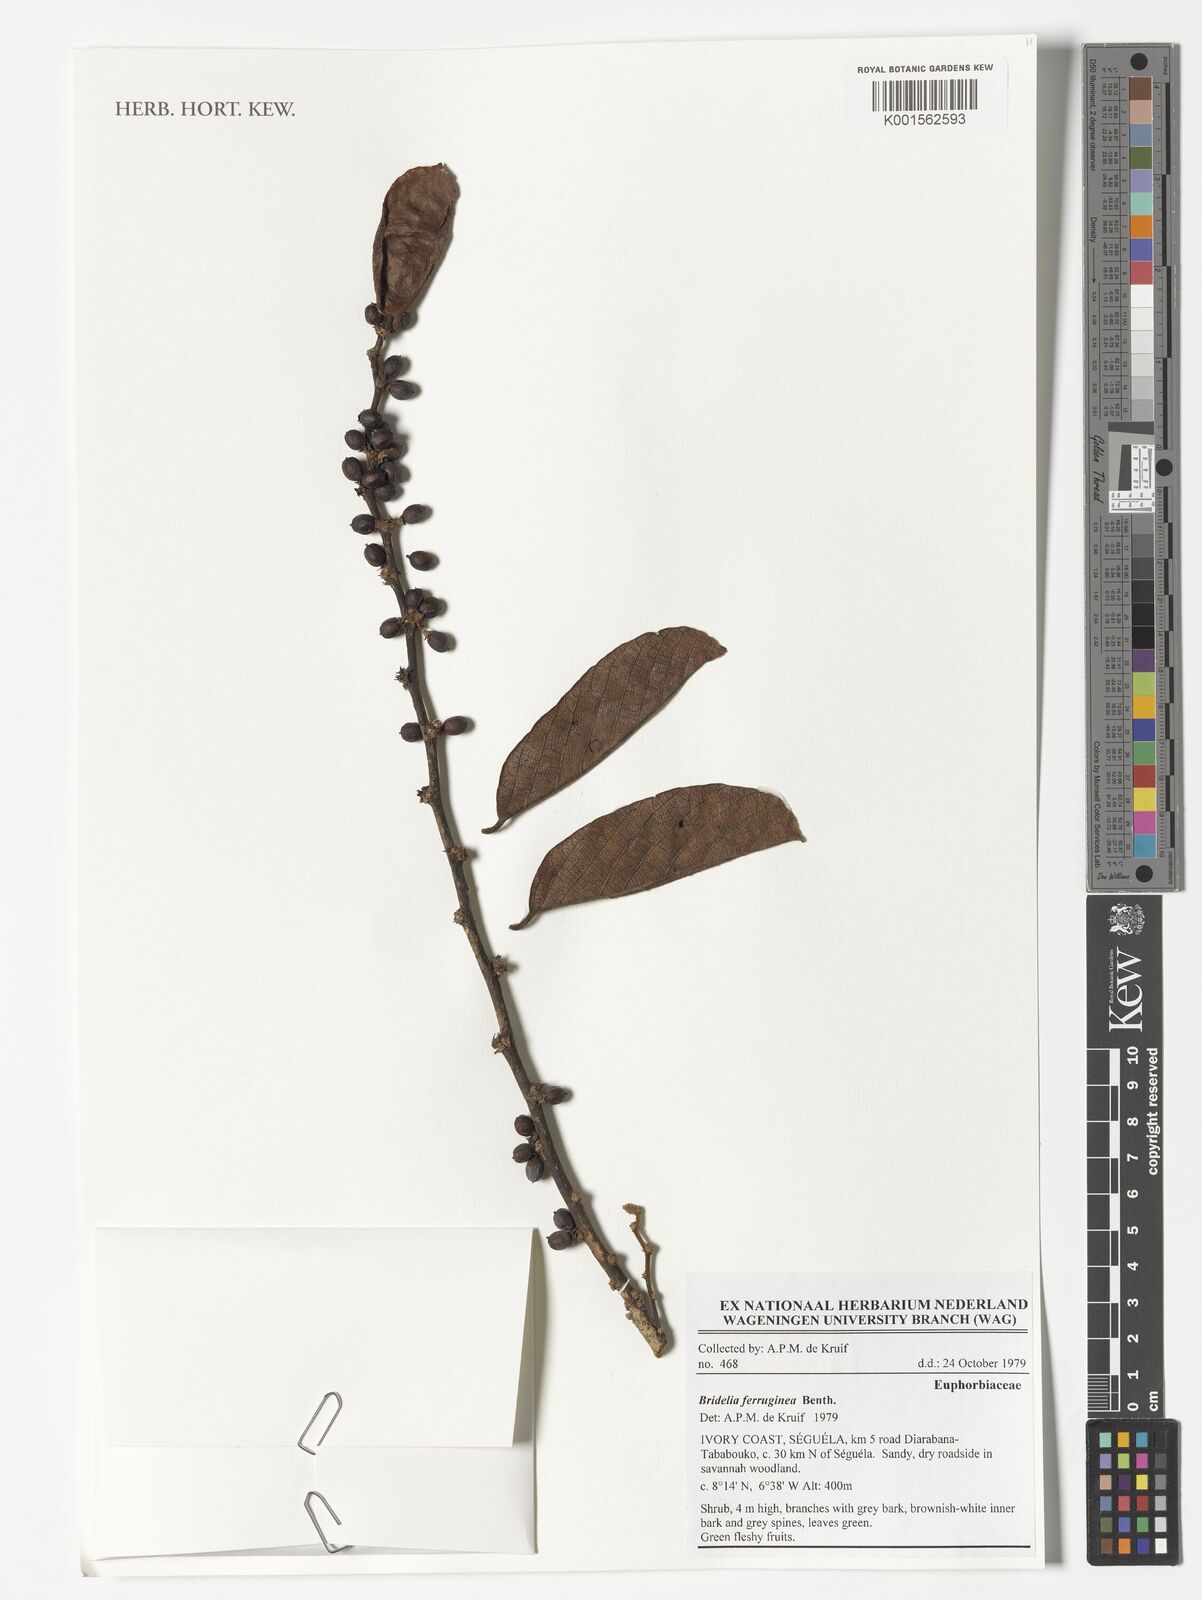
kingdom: Plantae
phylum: Tracheophyta
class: Magnoliopsida
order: Malpighiales
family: Phyllanthaceae
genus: Bridelia
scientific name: Bridelia ferruginea
